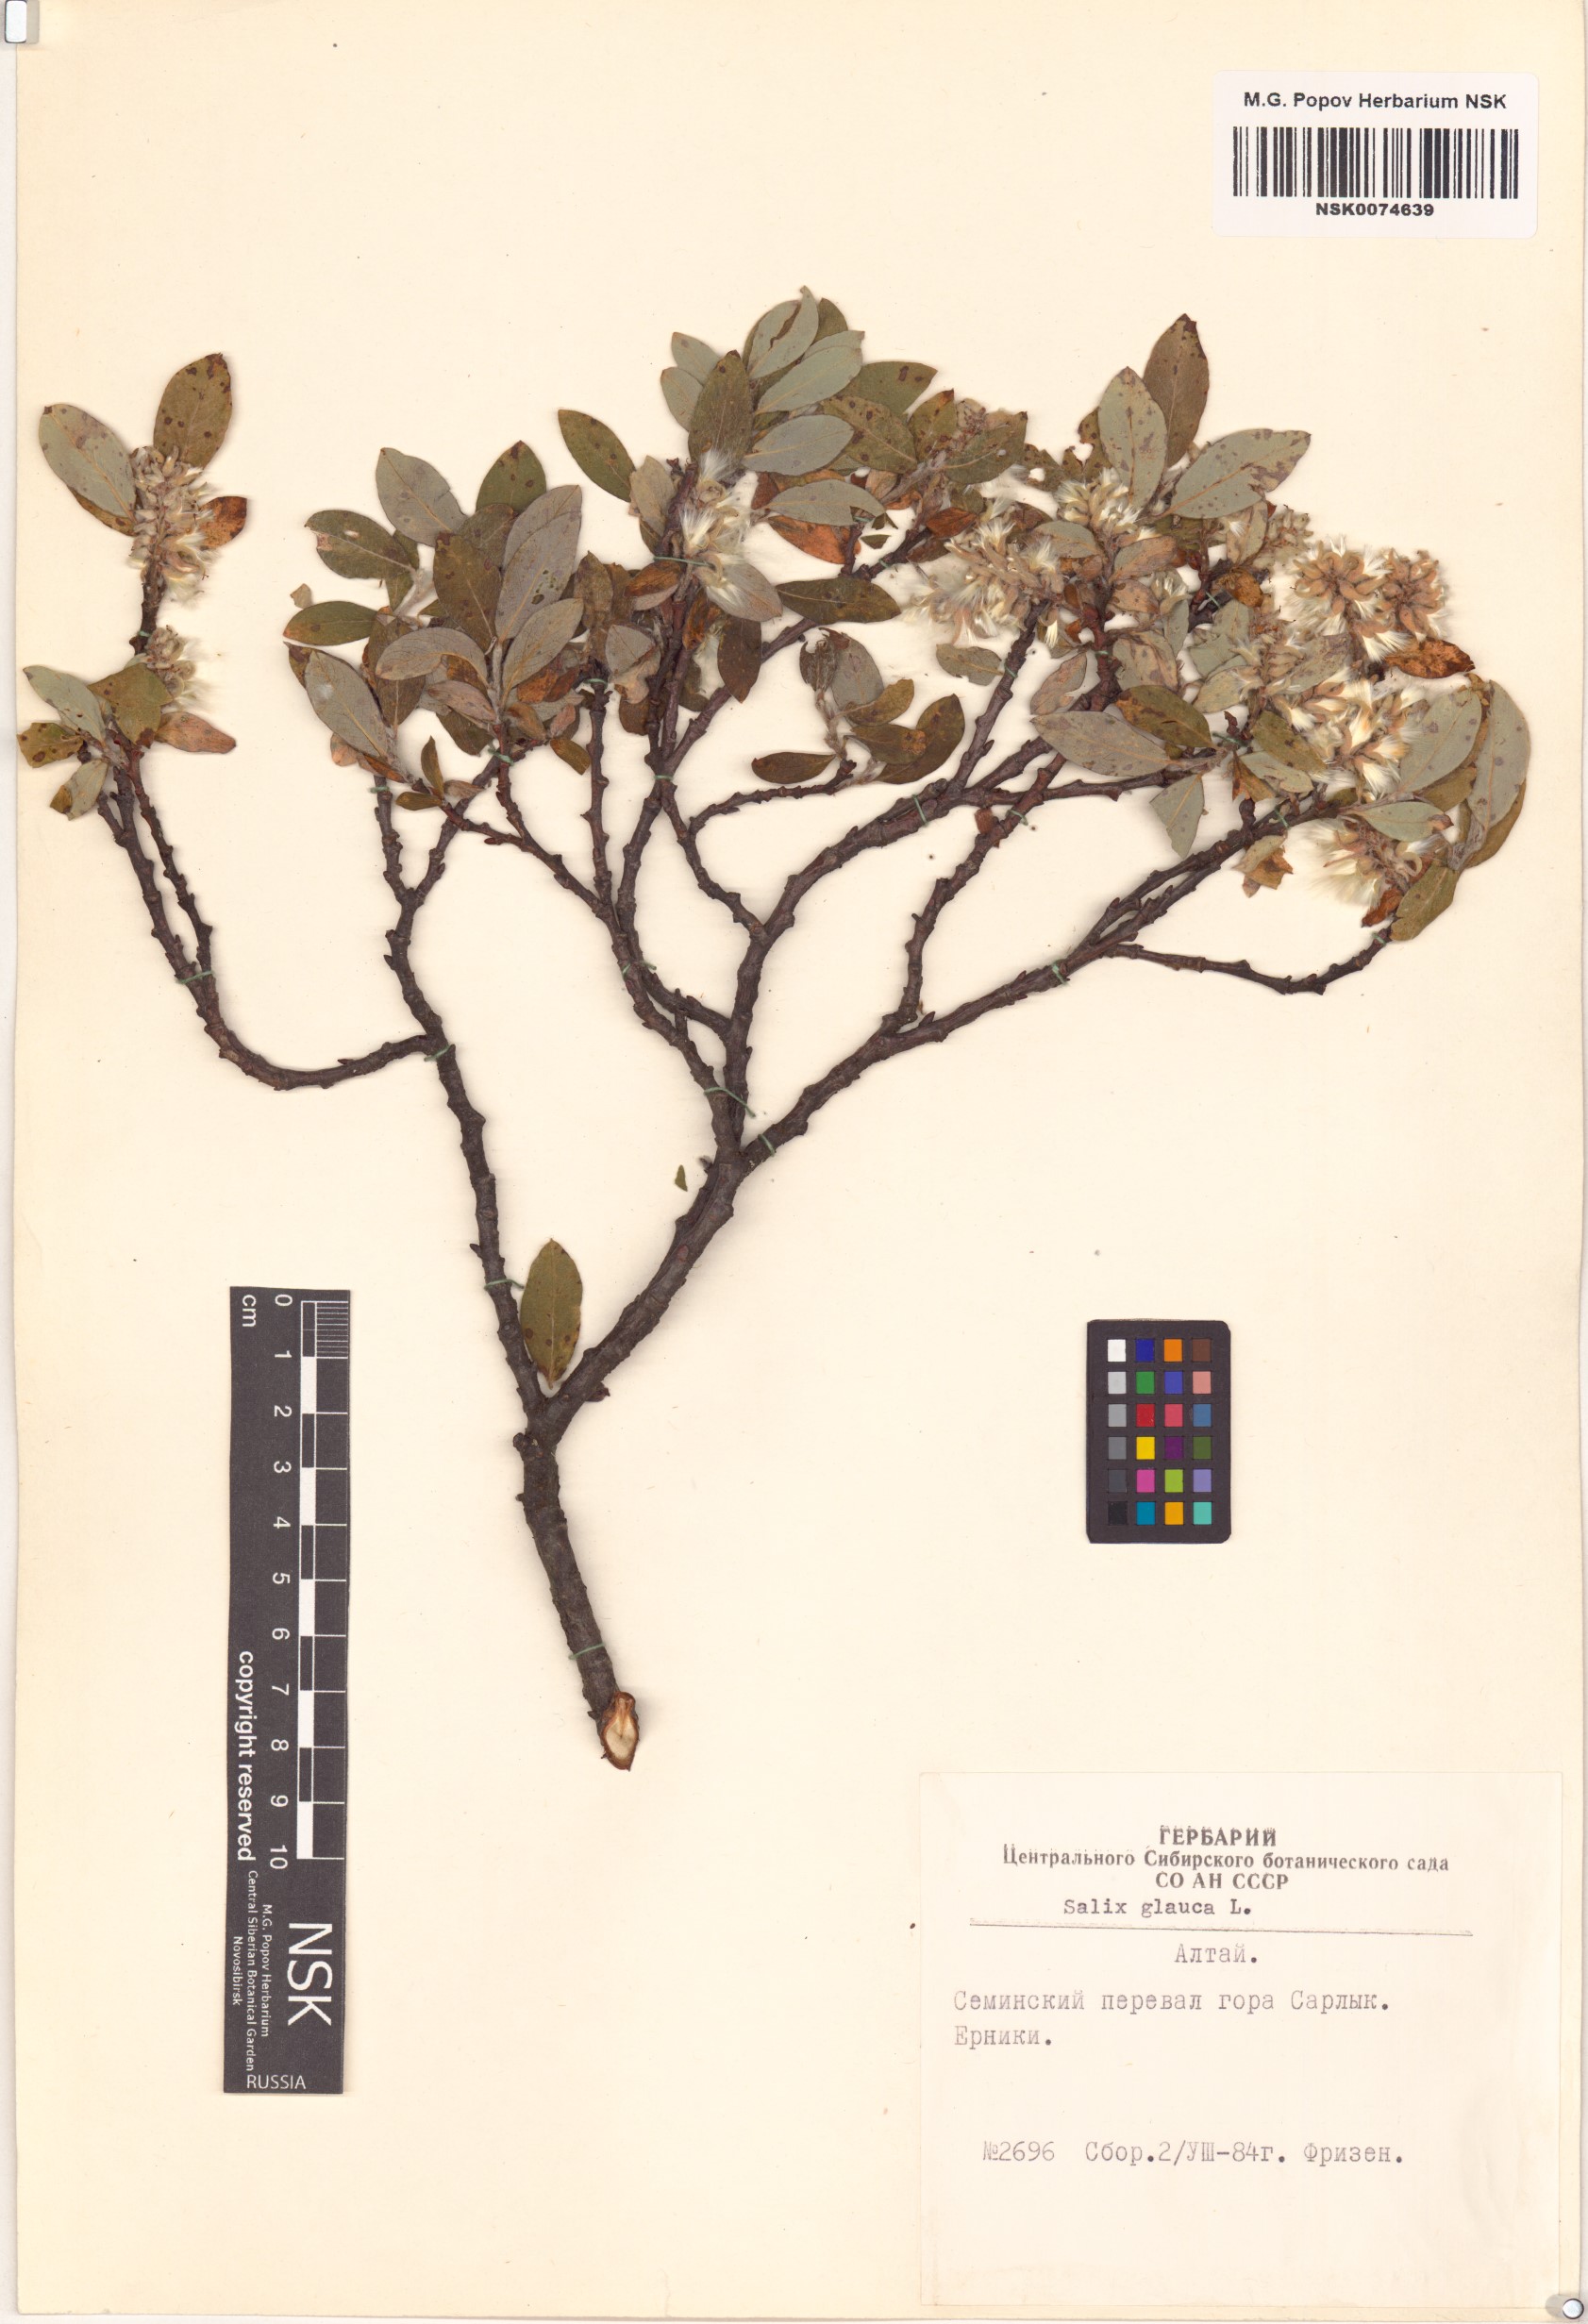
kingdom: Plantae
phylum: Tracheophyta
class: Magnoliopsida
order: Malpighiales
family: Salicaceae
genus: Salix
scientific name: Salix glauca
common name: Glaucous willow
